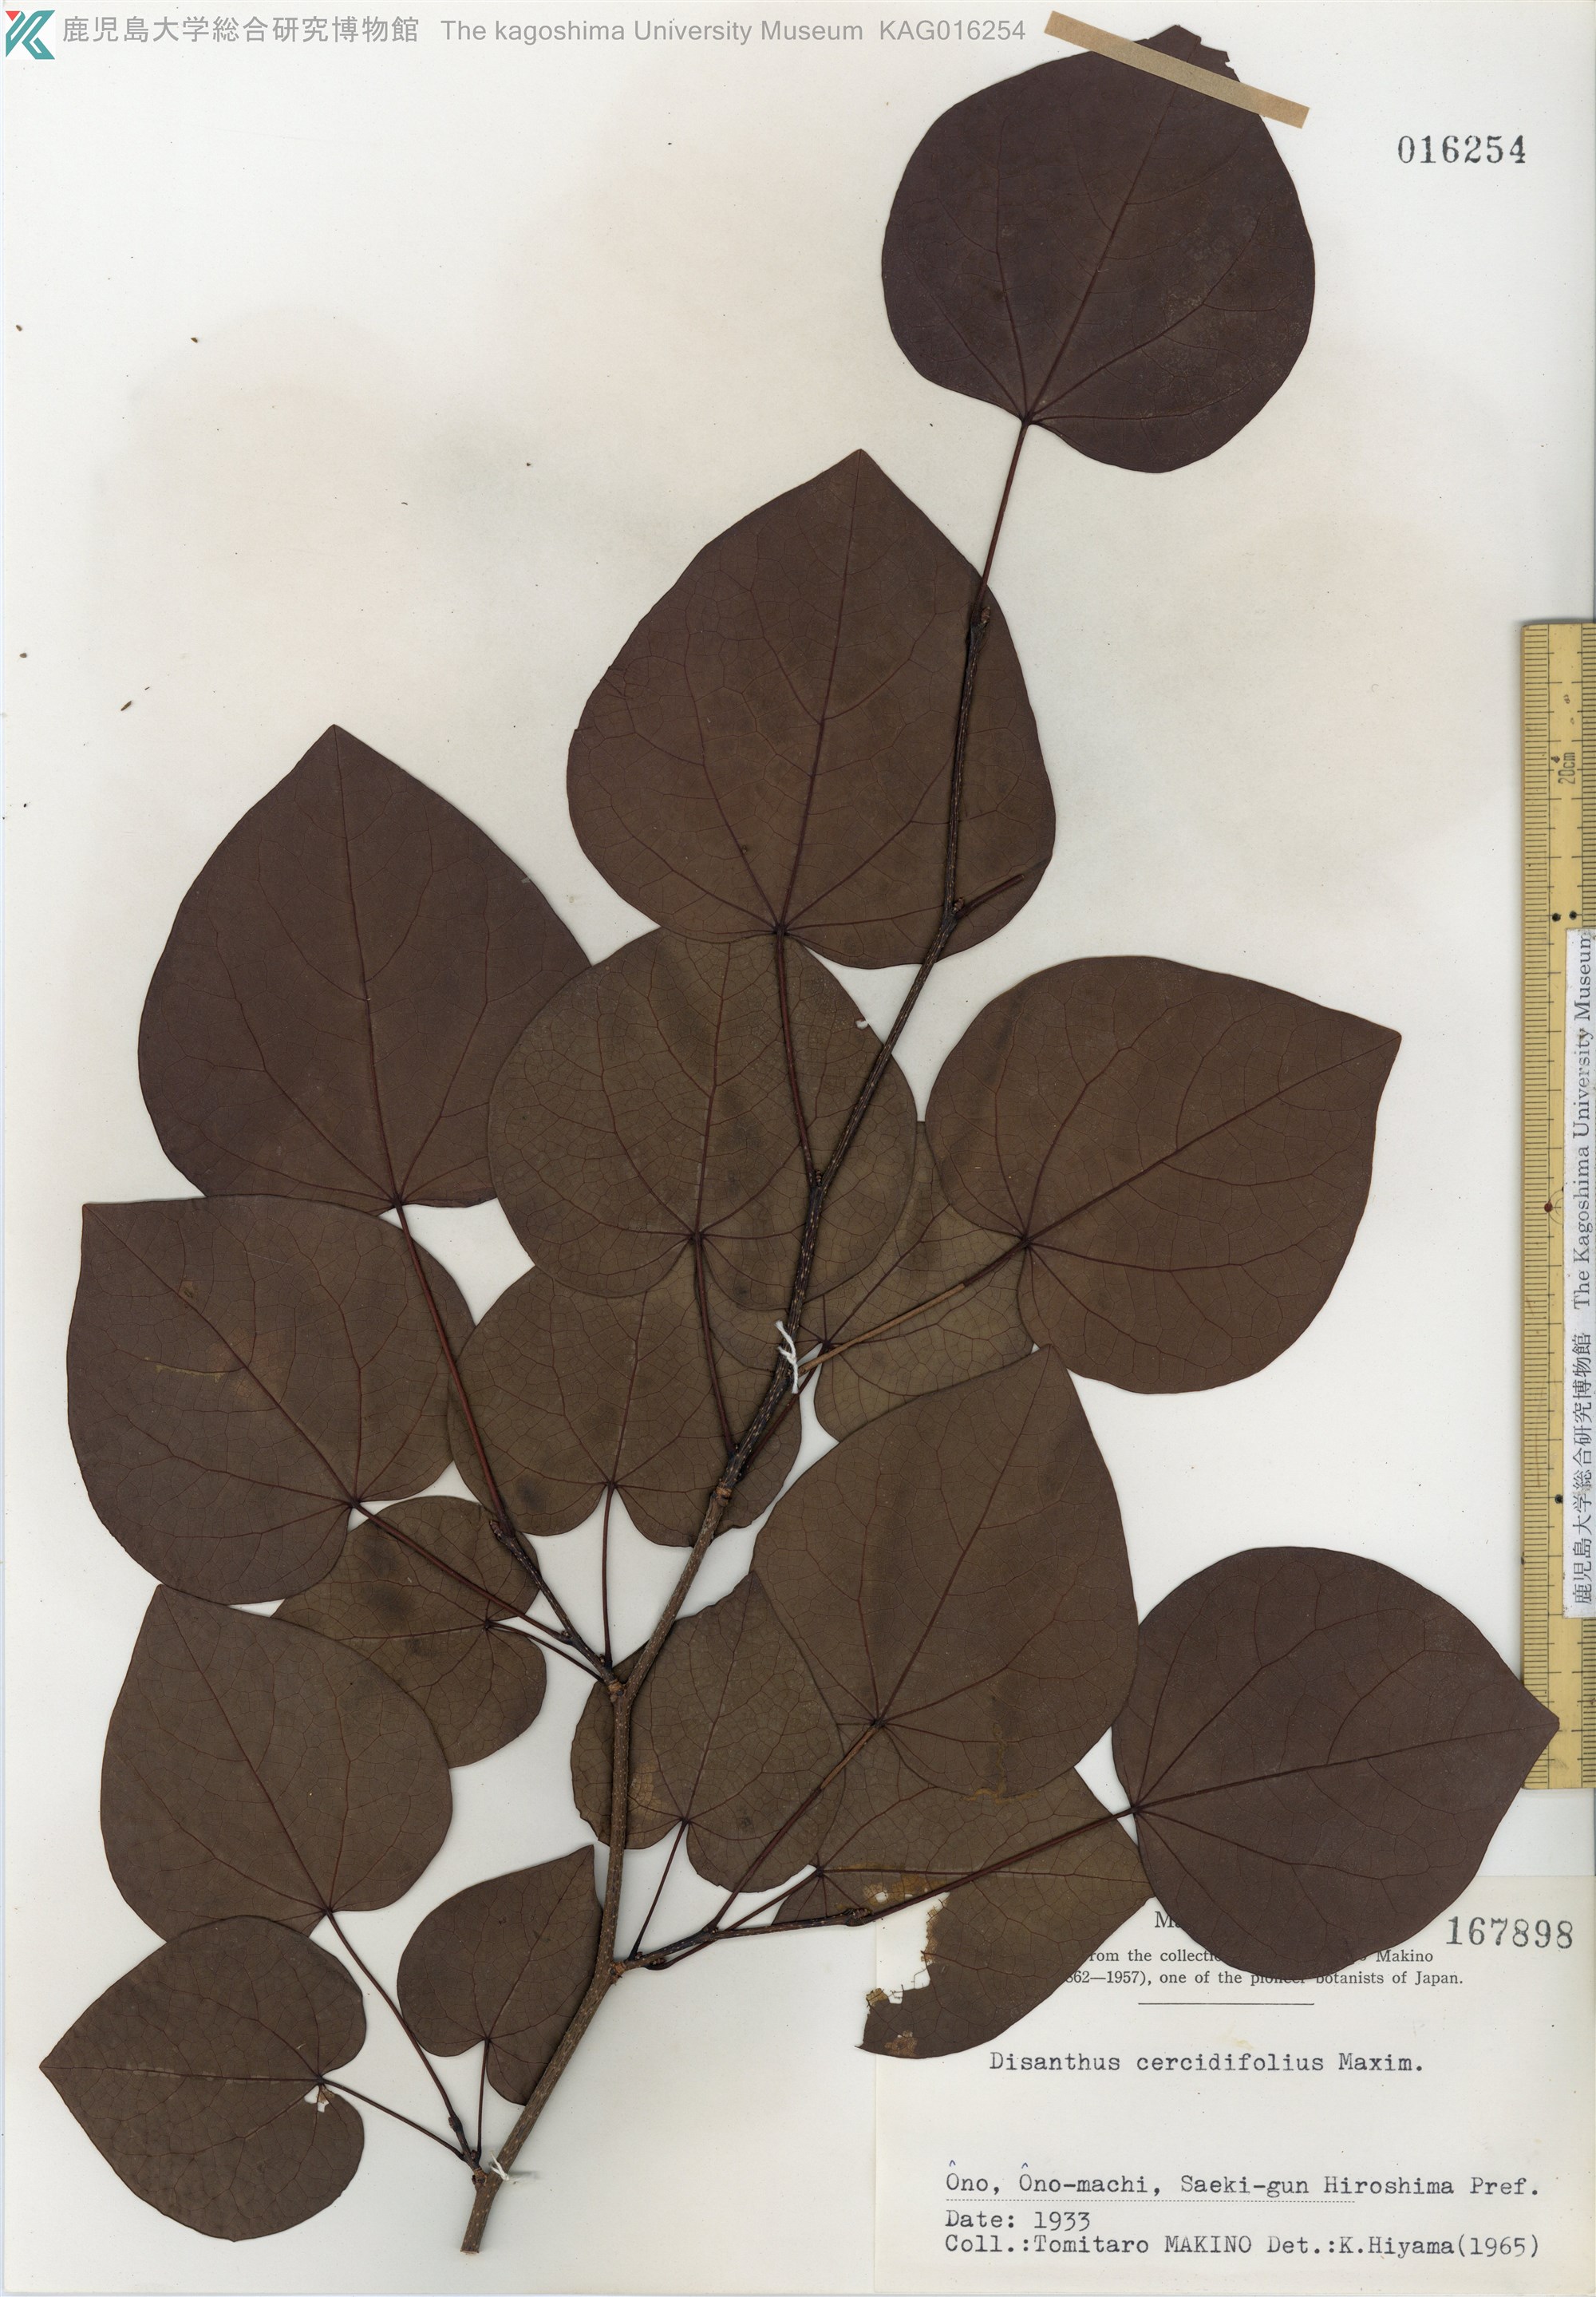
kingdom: Plantae
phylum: Tracheophyta
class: Magnoliopsida
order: Saxifragales
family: Hamamelidaceae
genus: Disanthus
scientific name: Disanthus cercidifolius
